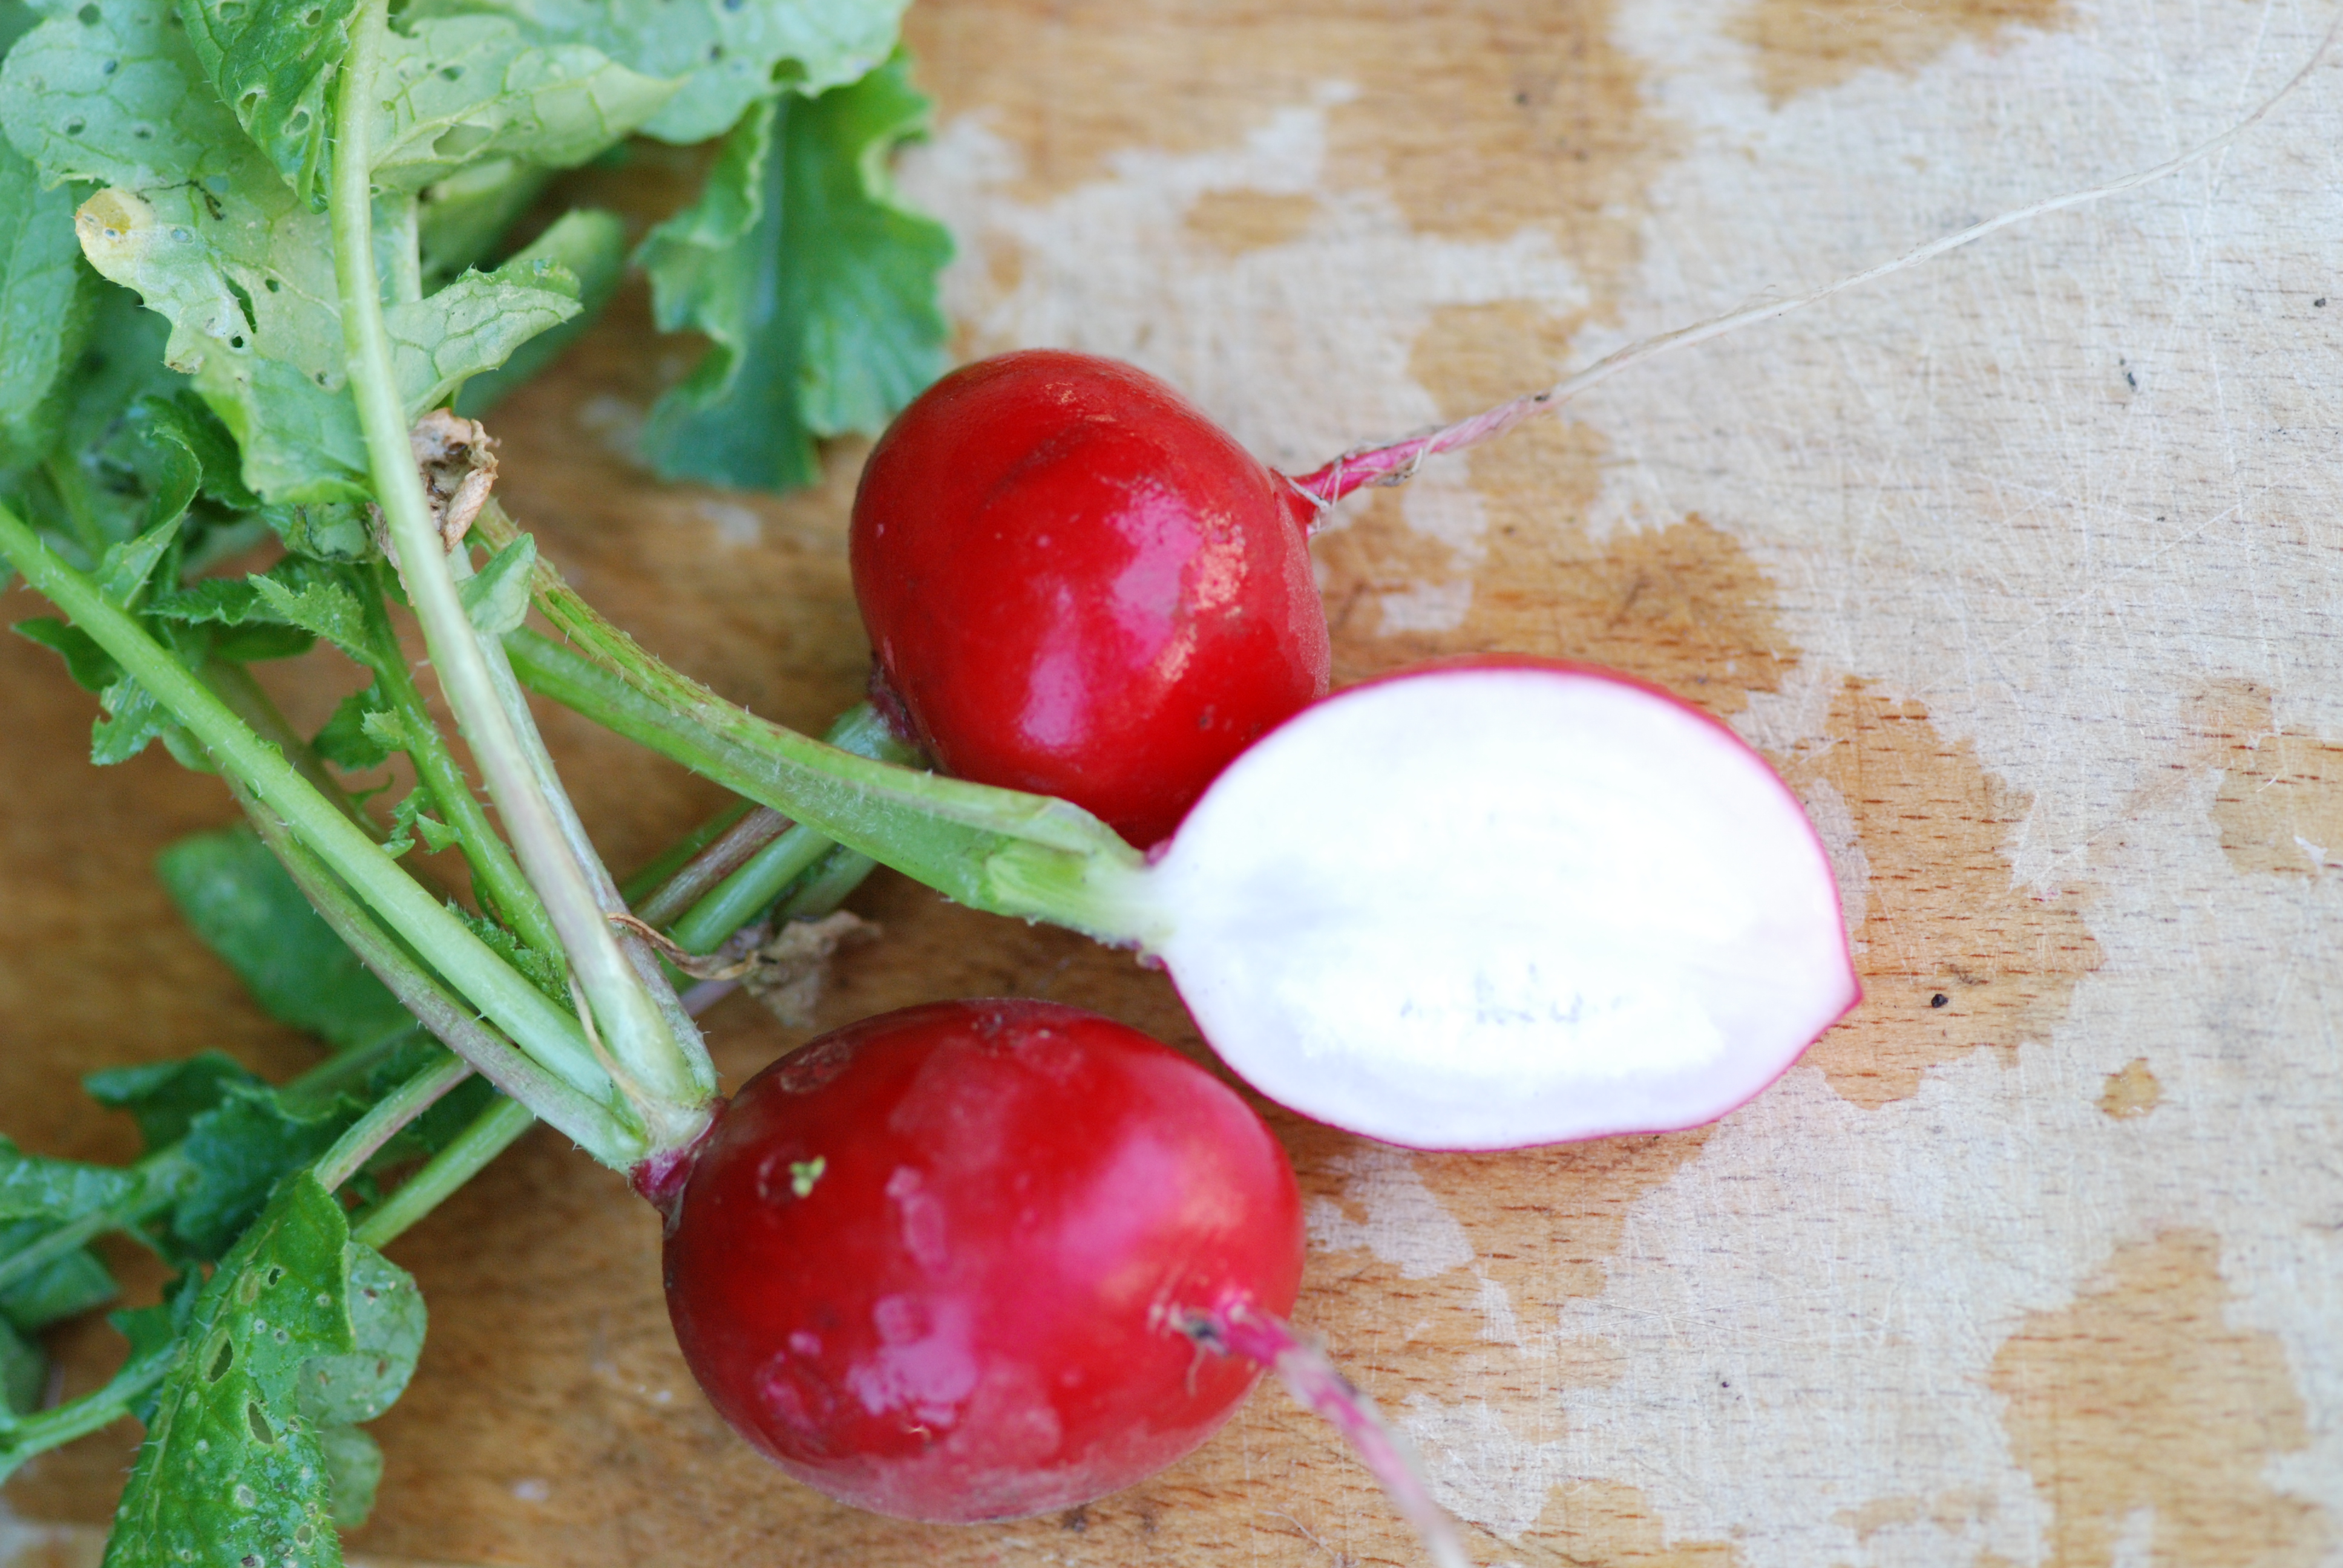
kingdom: Plantae
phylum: Tracheophyta
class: Magnoliopsida
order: Brassicales
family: Brassicaceae
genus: Raphanus
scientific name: Raphanus sativus
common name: Cultivated radish
